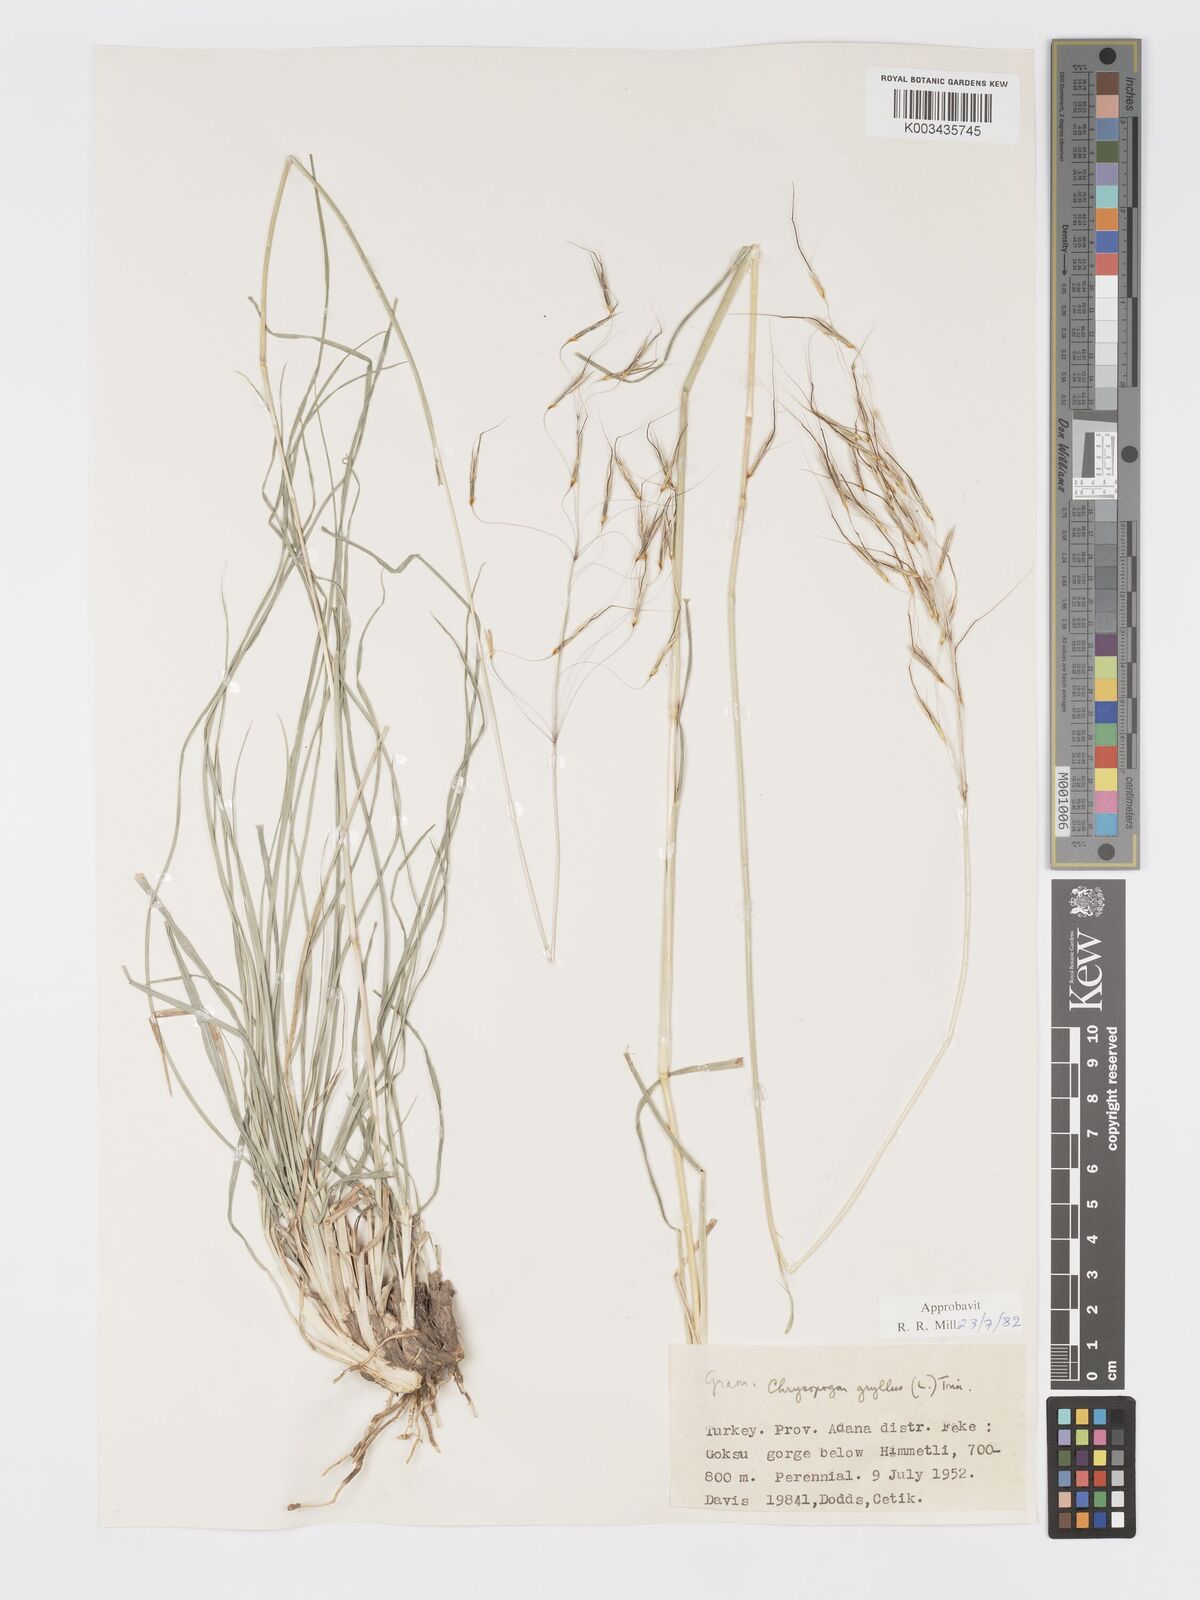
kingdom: Plantae
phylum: Tracheophyta
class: Liliopsida
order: Poales
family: Poaceae
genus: Chrysopogon
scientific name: Chrysopogon gryllus
